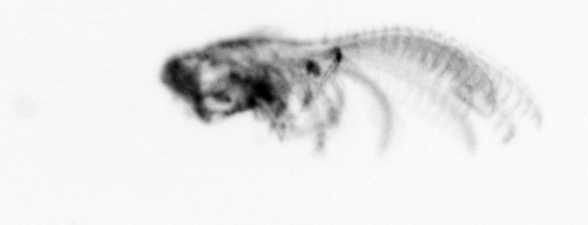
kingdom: Animalia
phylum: Arthropoda
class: Maxillopoda
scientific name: Maxillopoda
